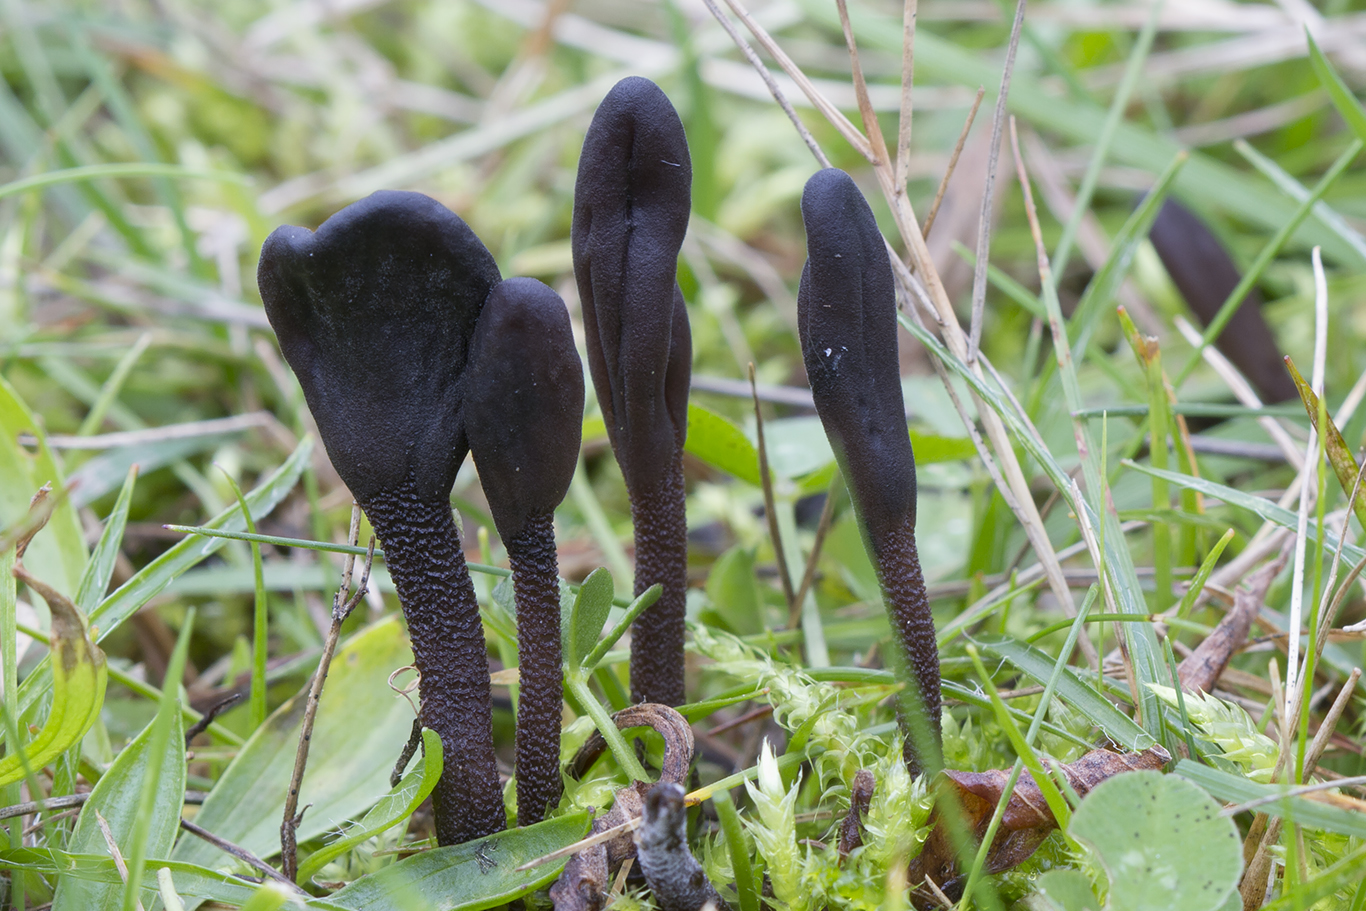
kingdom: Fungi
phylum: Ascomycota
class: Geoglossomycetes
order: Geoglossales
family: Geoglossaceae
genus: Geoglossum
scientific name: Geoglossum fallax
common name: småskællet jordtunge
